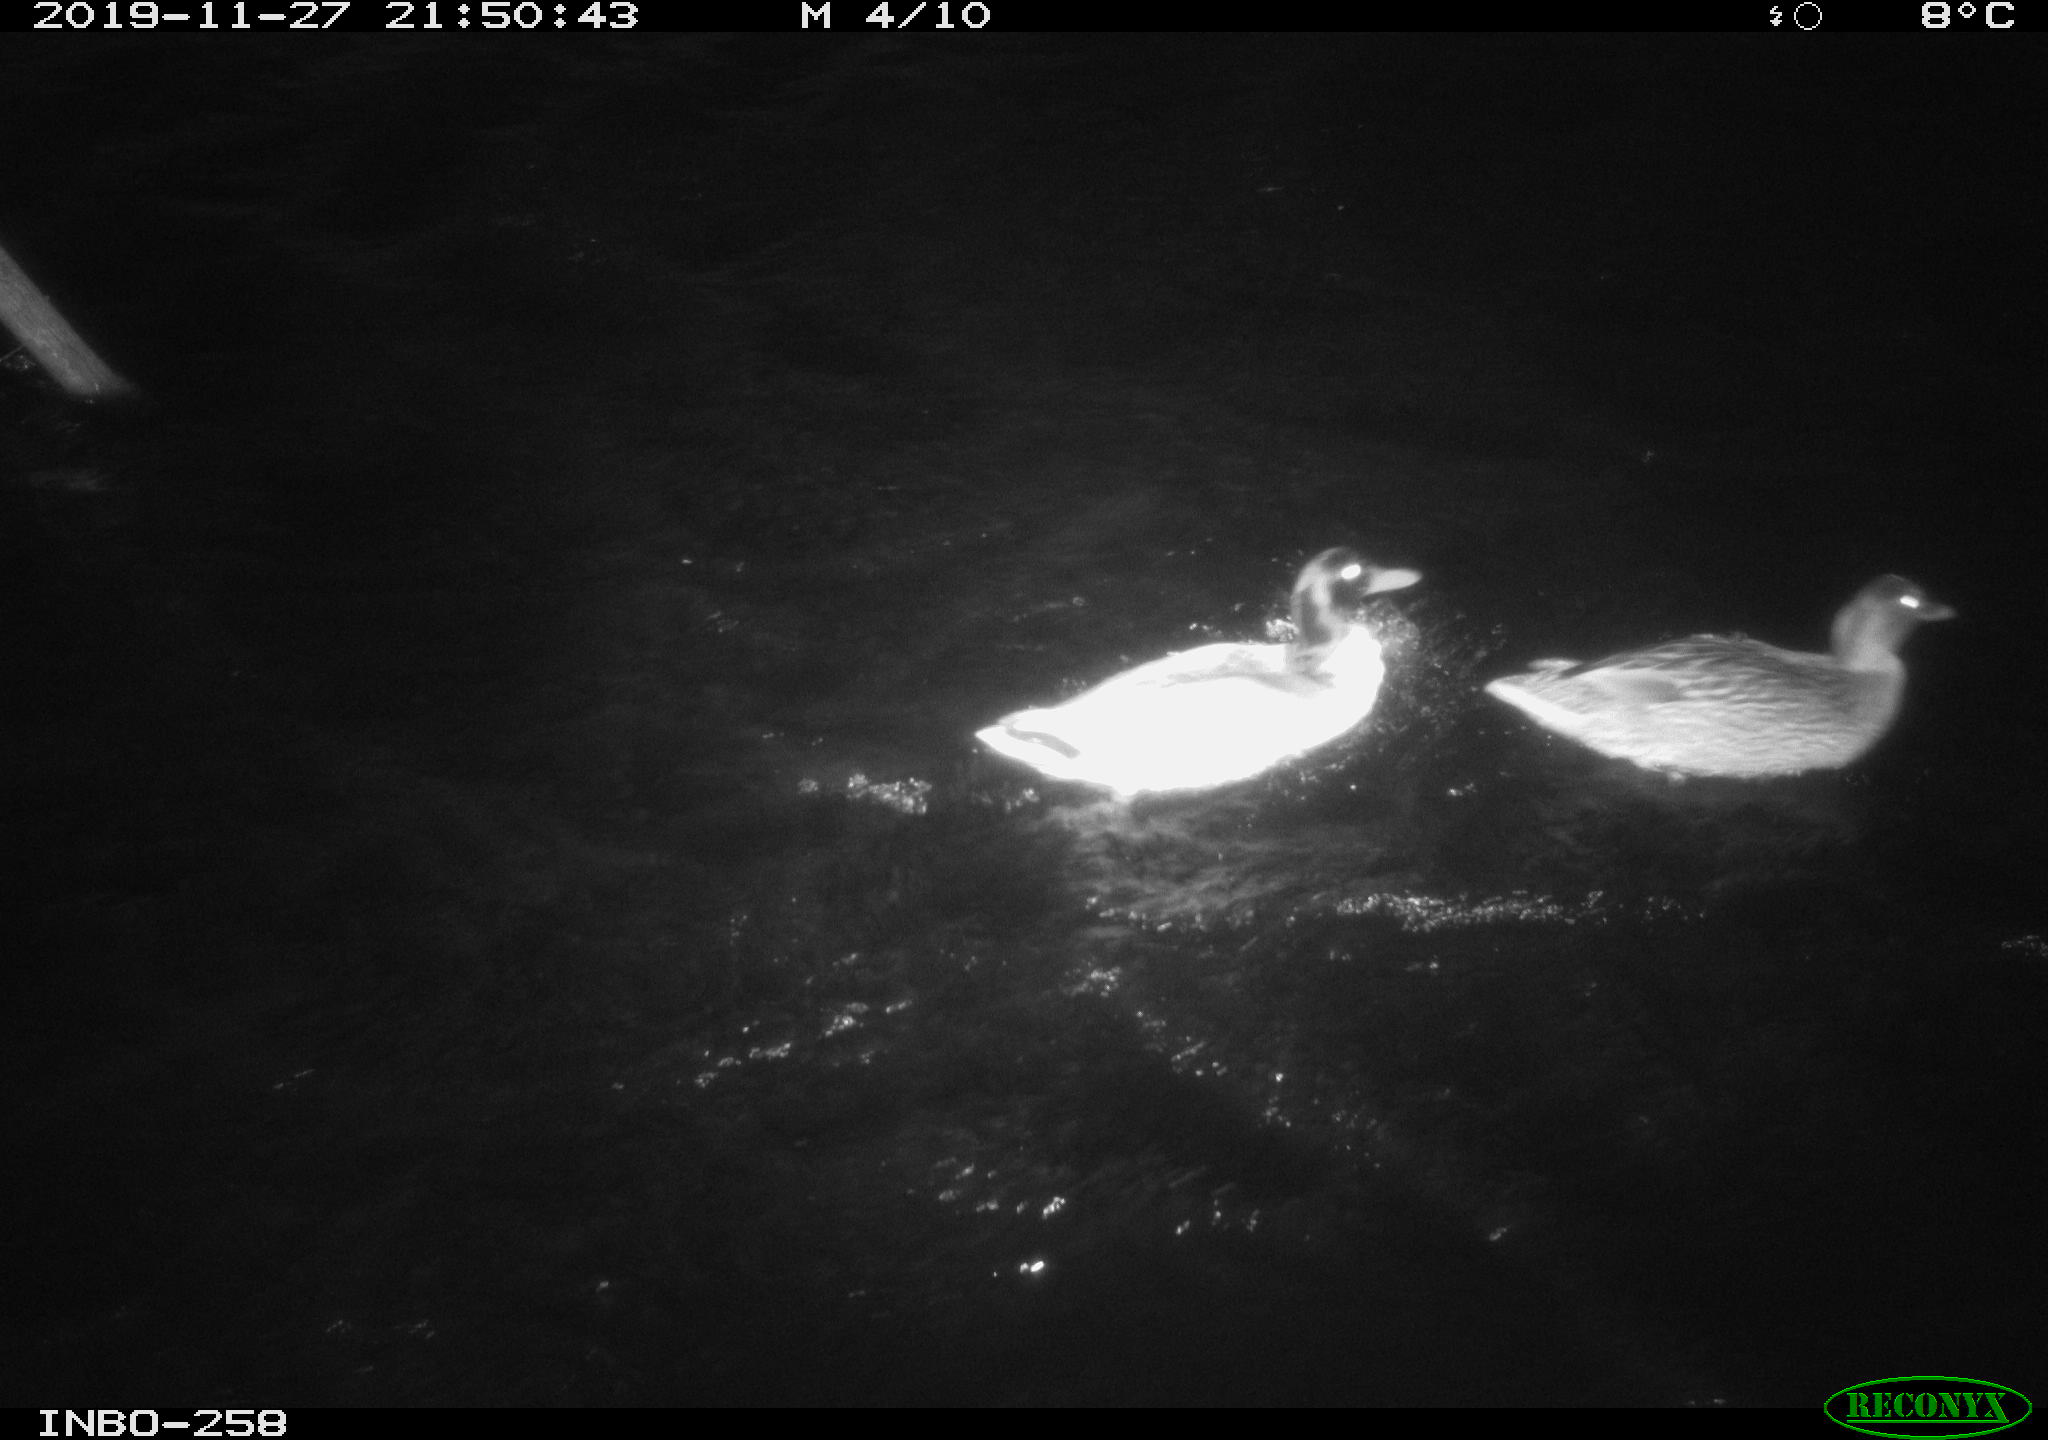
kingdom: Animalia
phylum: Chordata
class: Aves
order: Anseriformes
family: Anatidae
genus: Anas
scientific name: Anas platyrhynchos
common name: Mallard
